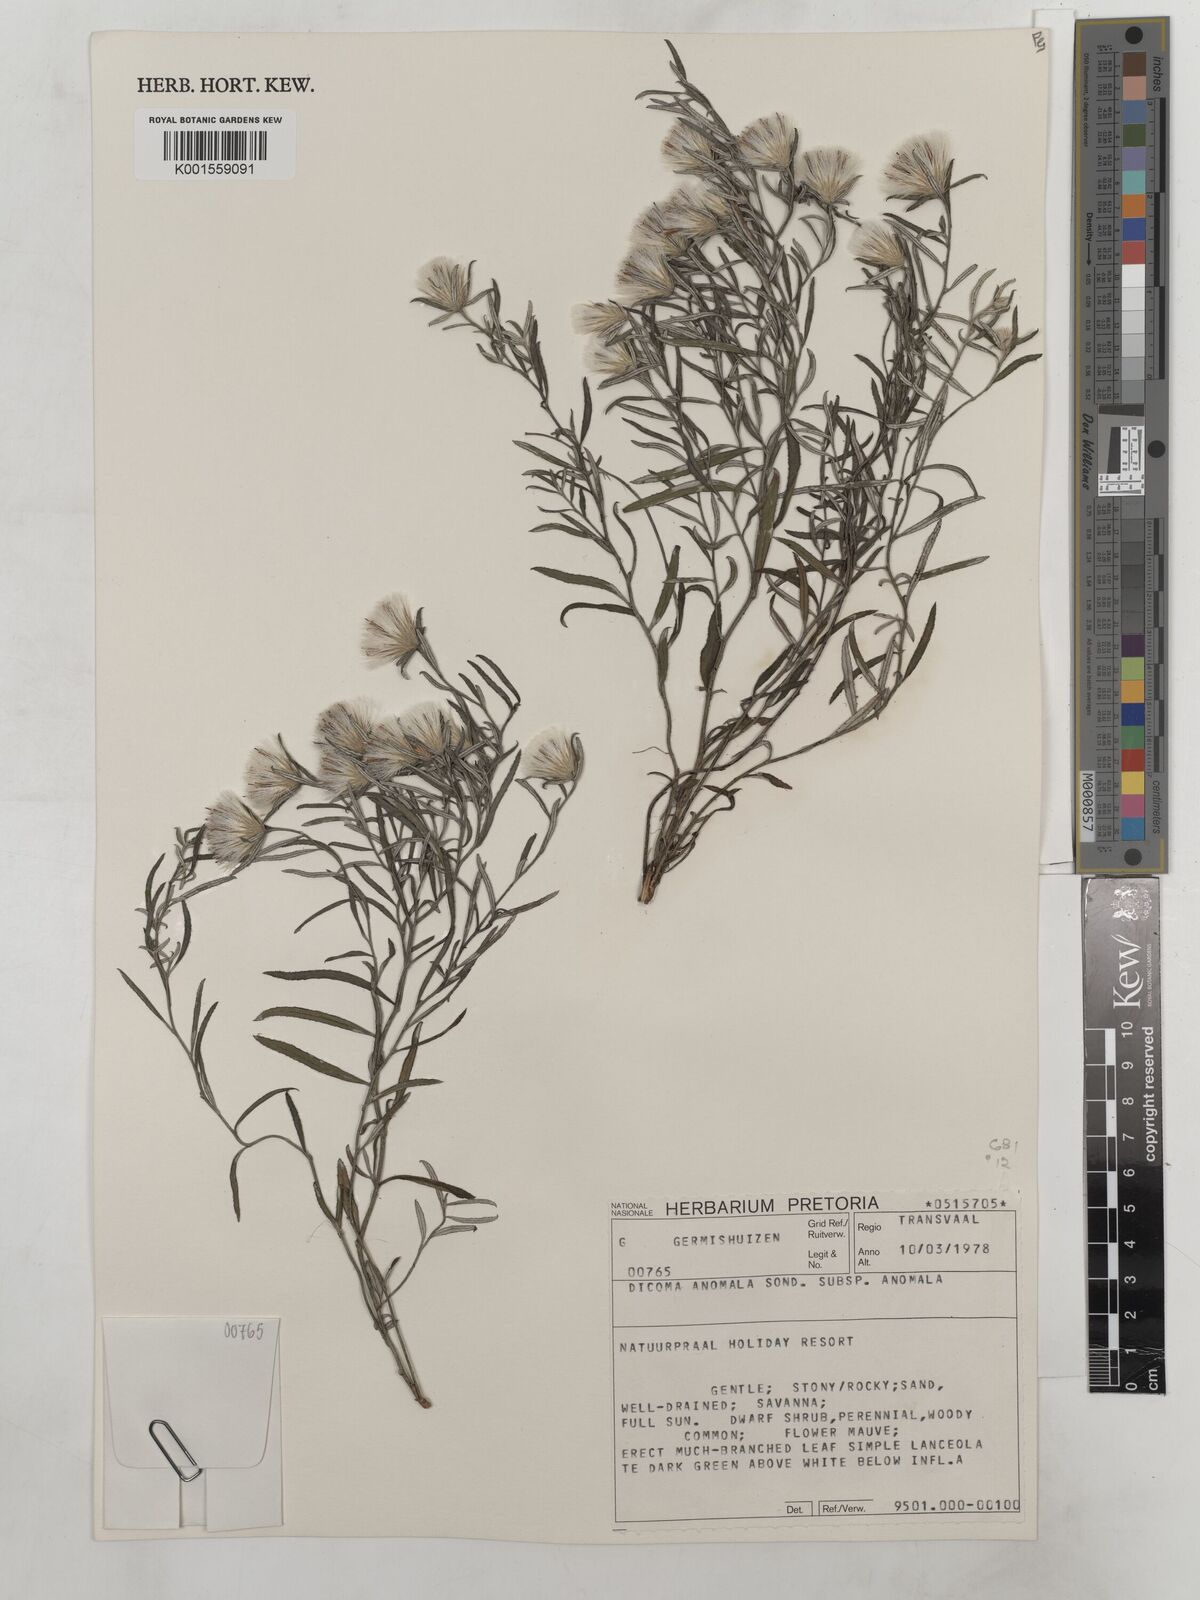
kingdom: Plantae
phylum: Tracheophyta
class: Magnoliopsida
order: Asterales
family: Asteraceae
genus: Dicoma
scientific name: Dicoma anomala
